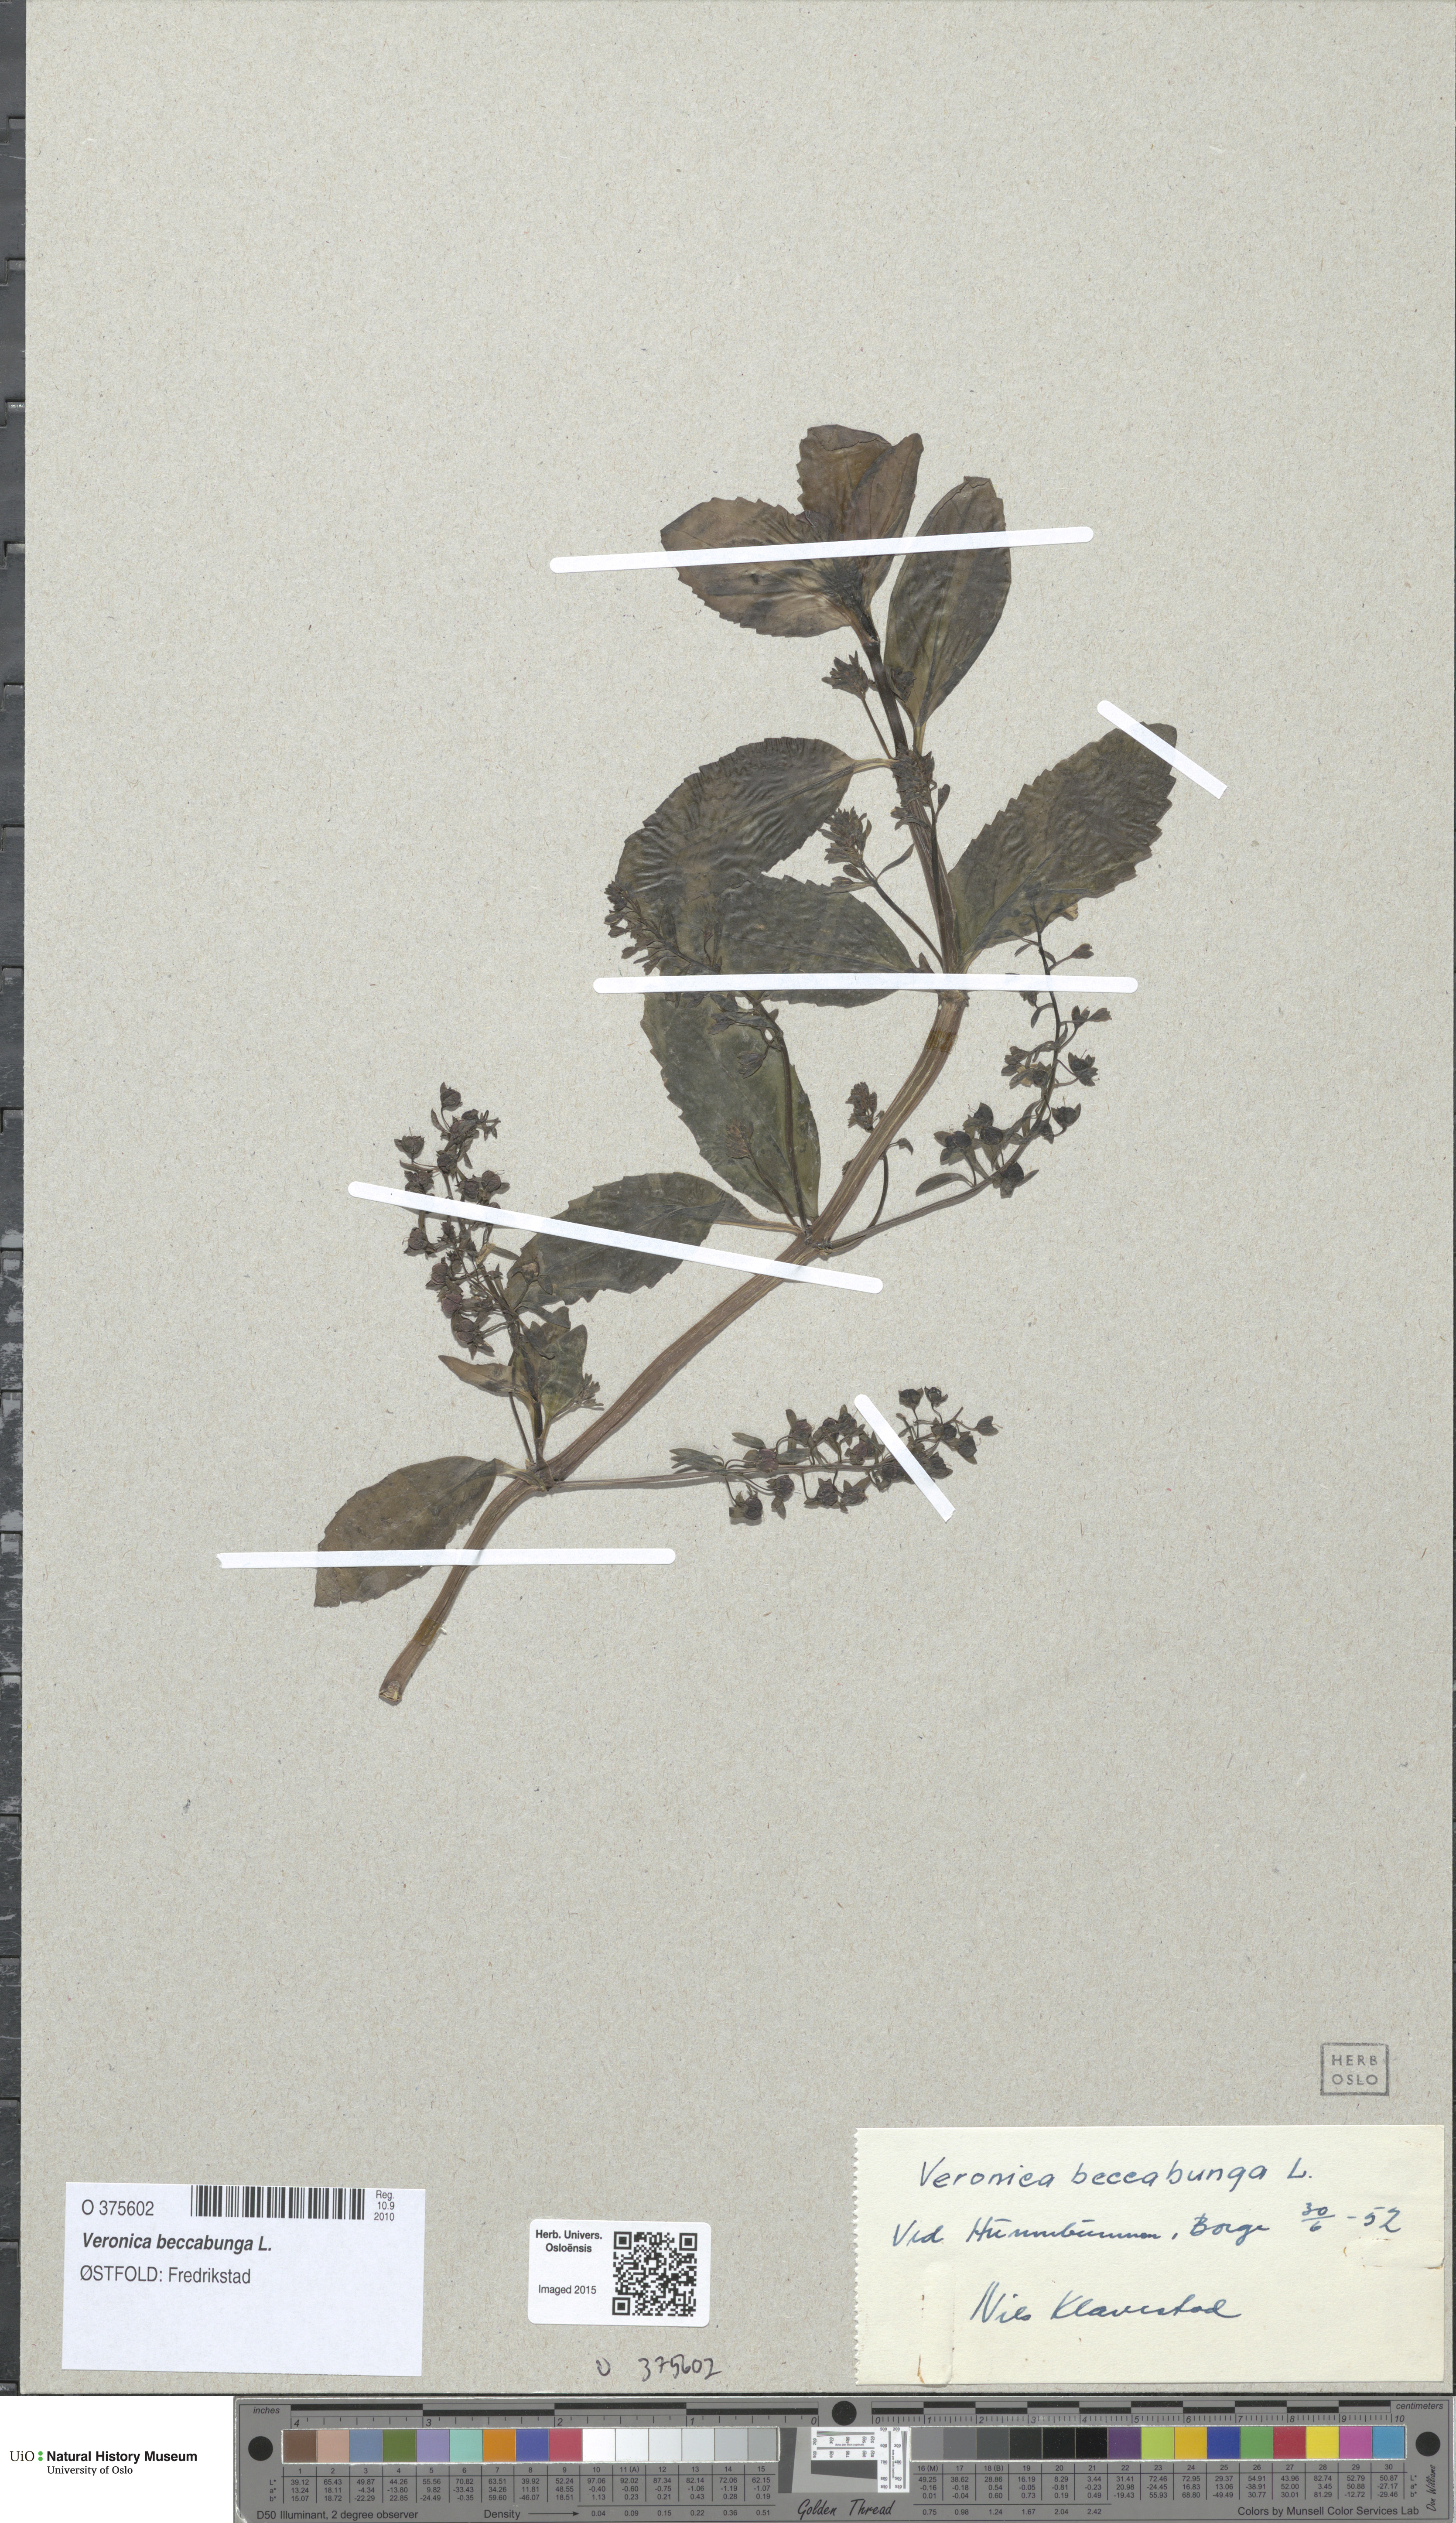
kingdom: Plantae
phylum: Tracheophyta
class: Magnoliopsida
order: Lamiales
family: Plantaginaceae
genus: Veronica
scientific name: Veronica beccabunga
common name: Brooklime
